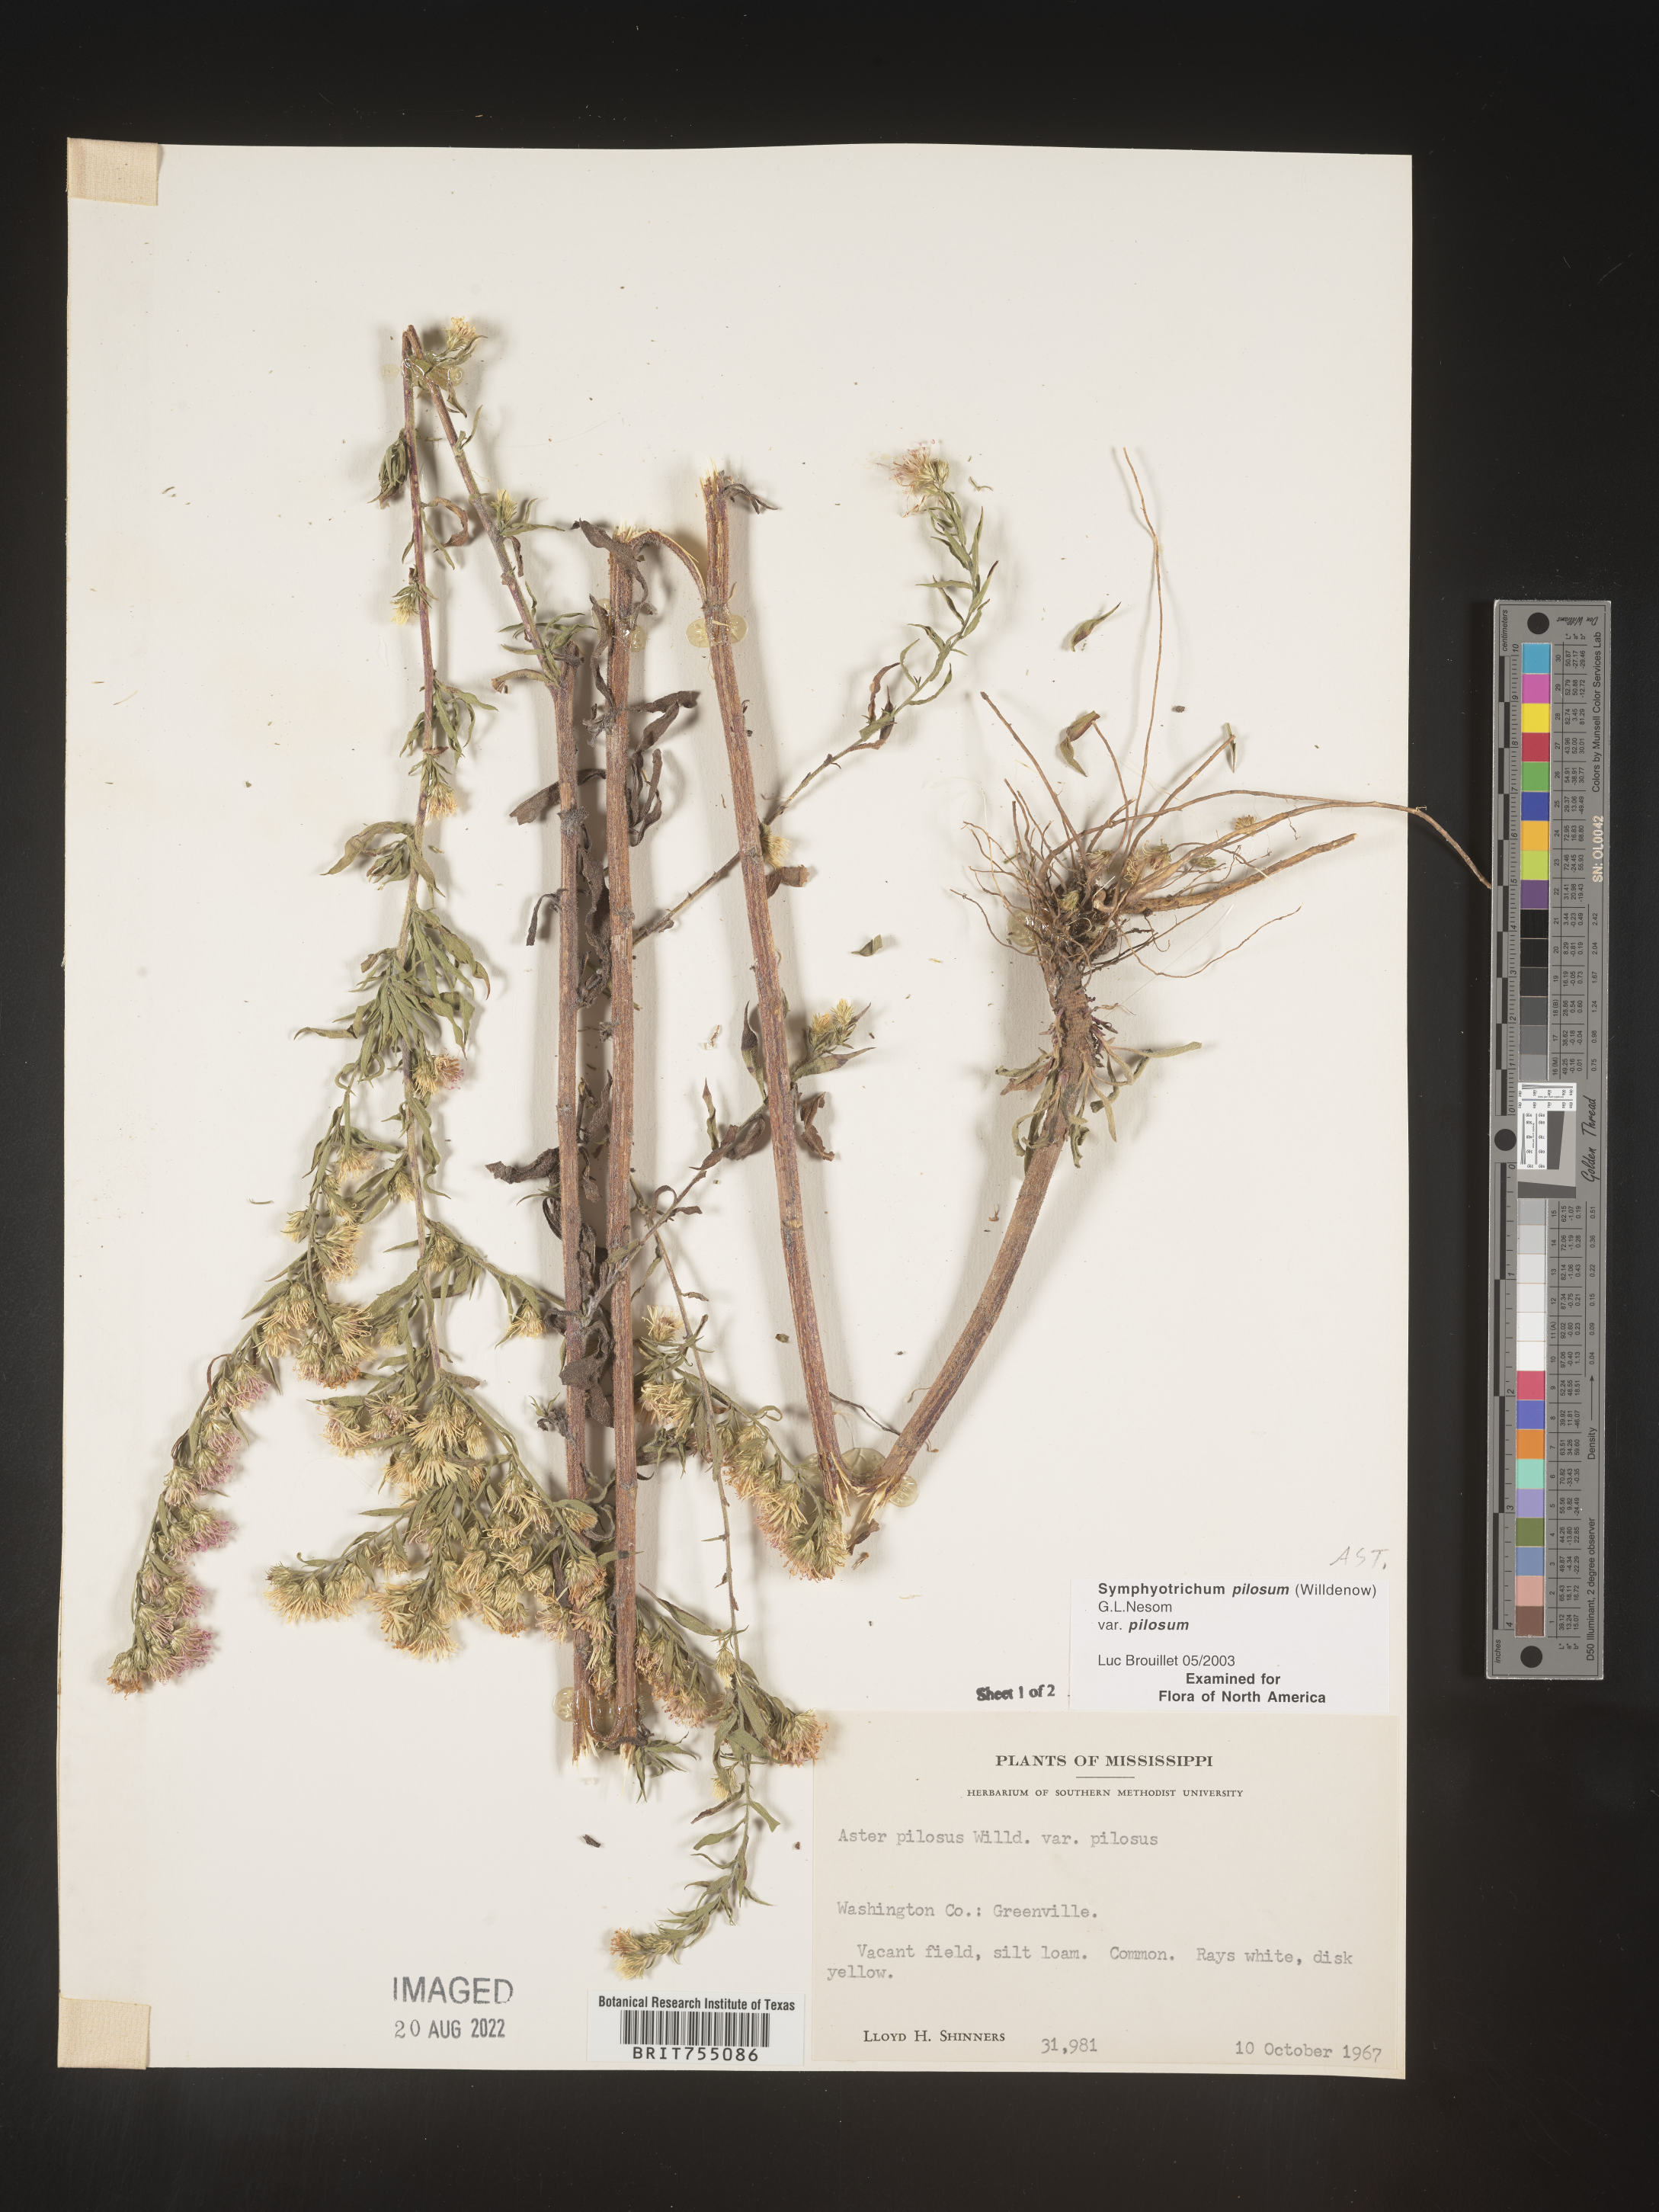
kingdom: Plantae
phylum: Tracheophyta
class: Magnoliopsida
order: Asterales
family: Asteraceae
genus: Symphyotrichum
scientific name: Symphyotrichum pilosum
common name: Awl aster
